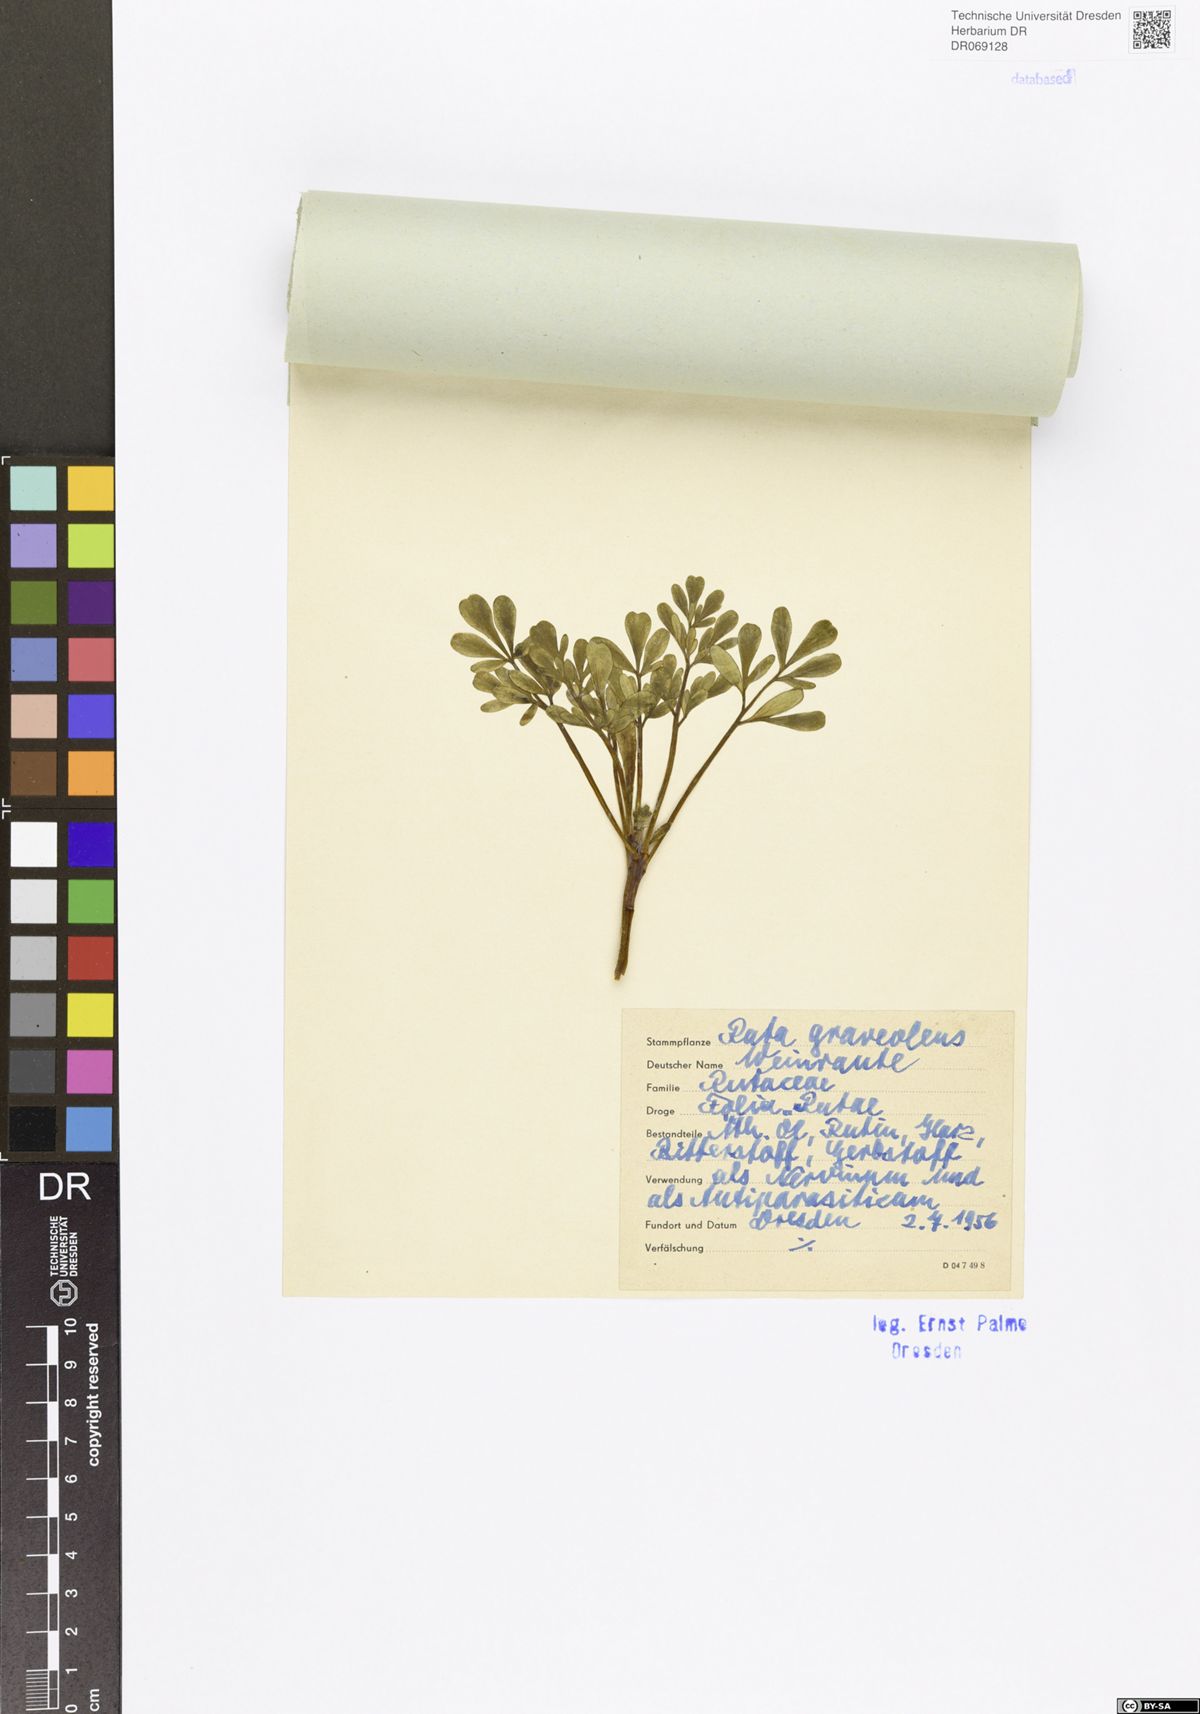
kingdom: Plantae
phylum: Tracheophyta
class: Magnoliopsida
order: Sapindales
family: Rutaceae
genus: Ruta
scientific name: Ruta graveolens
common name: Common rue
